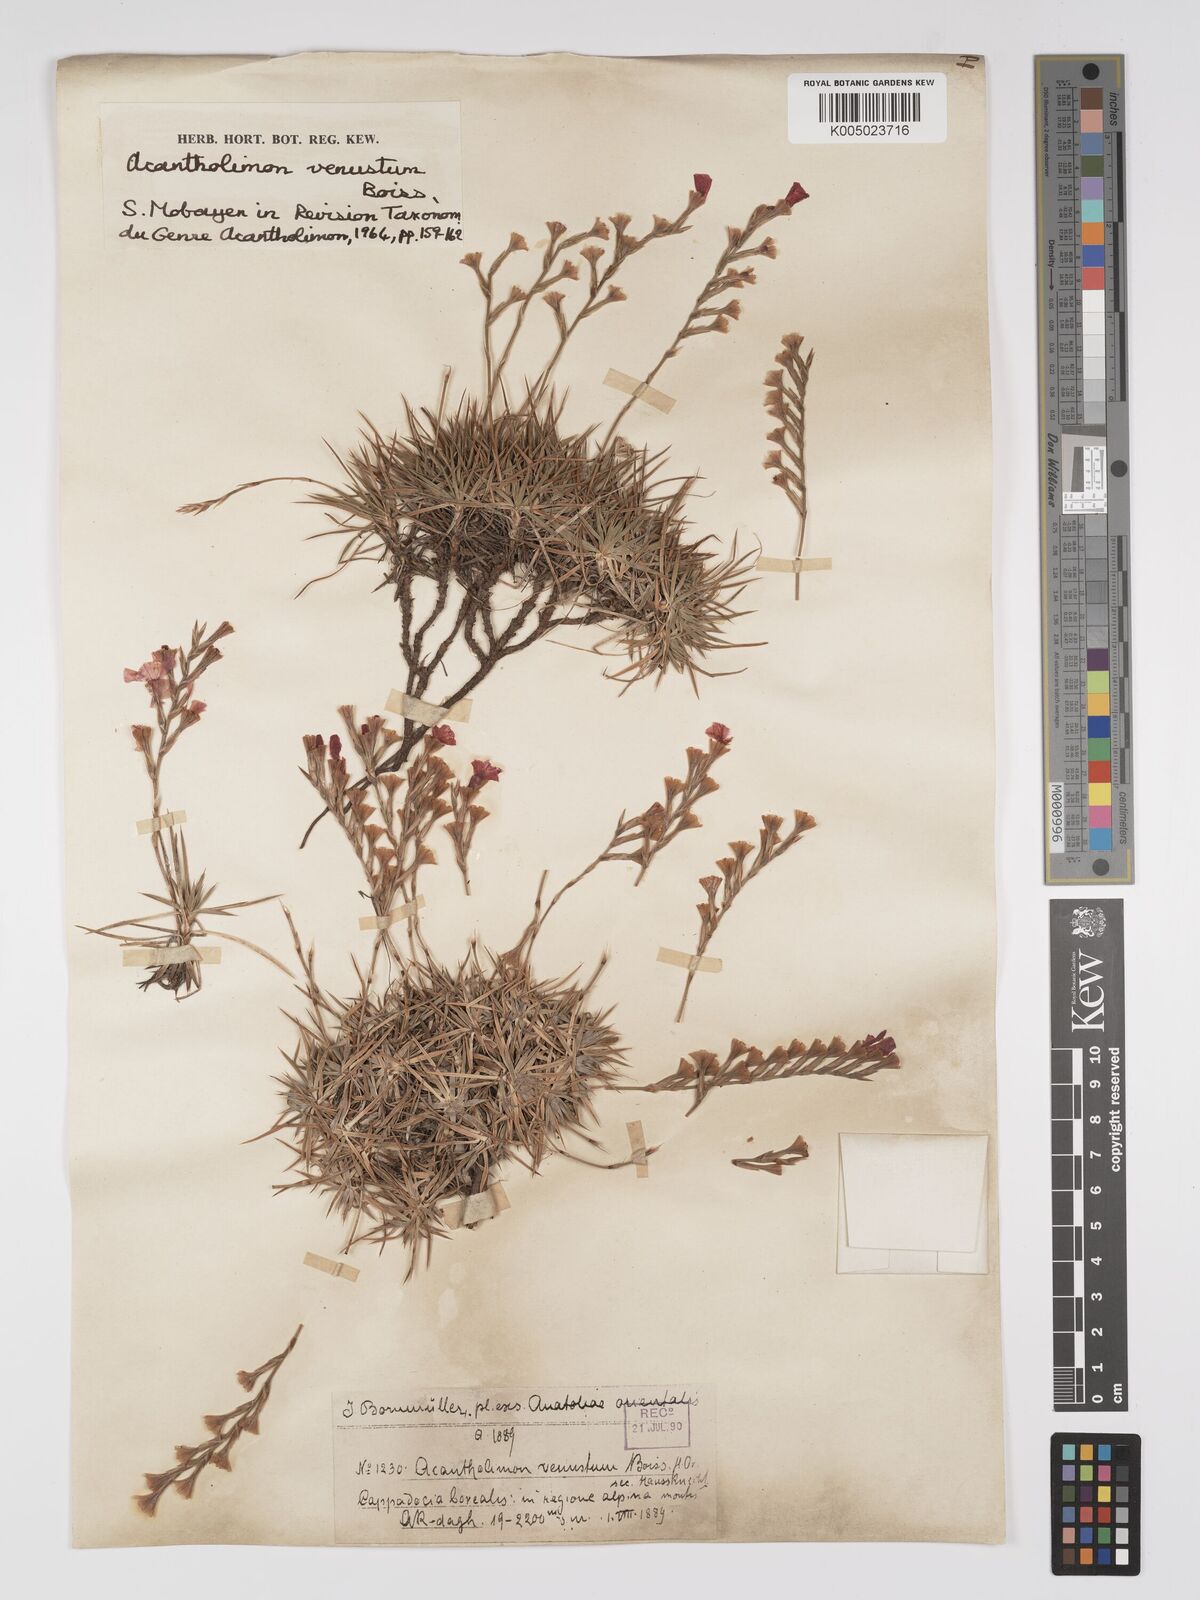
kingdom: Plantae
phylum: Tracheophyta
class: Magnoliopsida
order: Caryophyllales
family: Plumbaginaceae
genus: Acantholimon
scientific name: Acantholimon venustum
